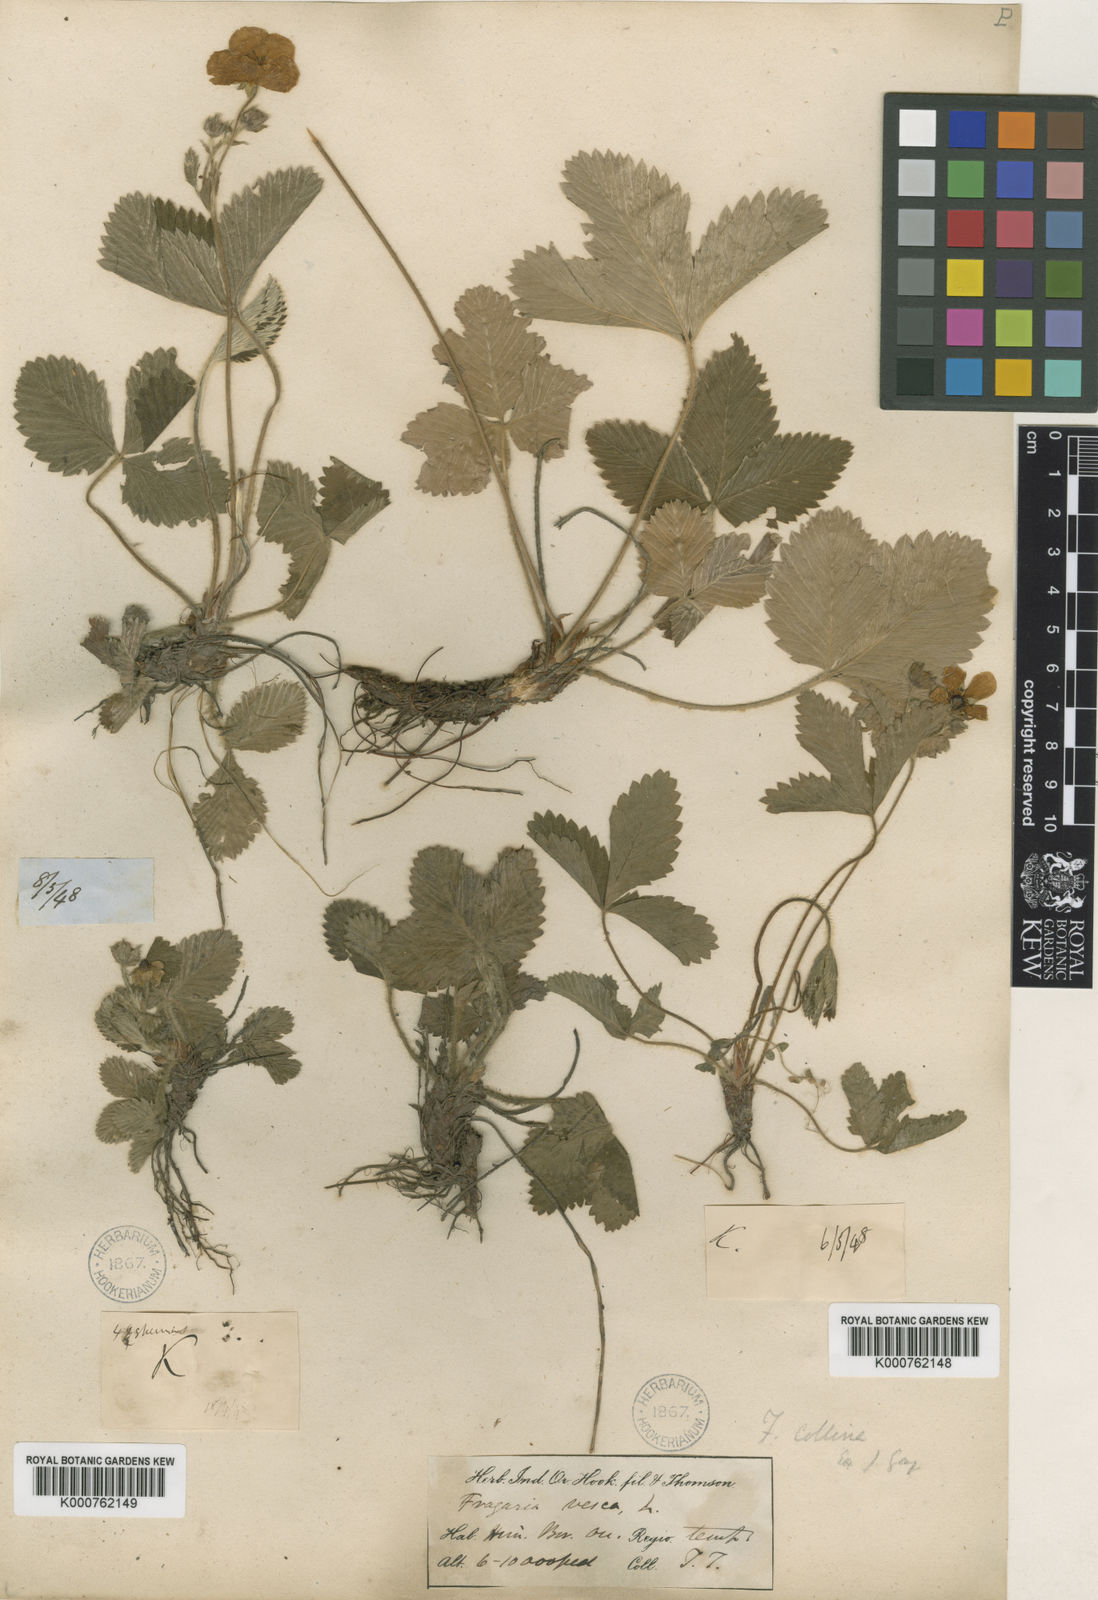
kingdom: Plantae
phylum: Tracheophyta
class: Magnoliopsida
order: Rosales
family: Rosaceae
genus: Fragaria
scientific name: Fragaria vesca
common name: Wild strawberry
